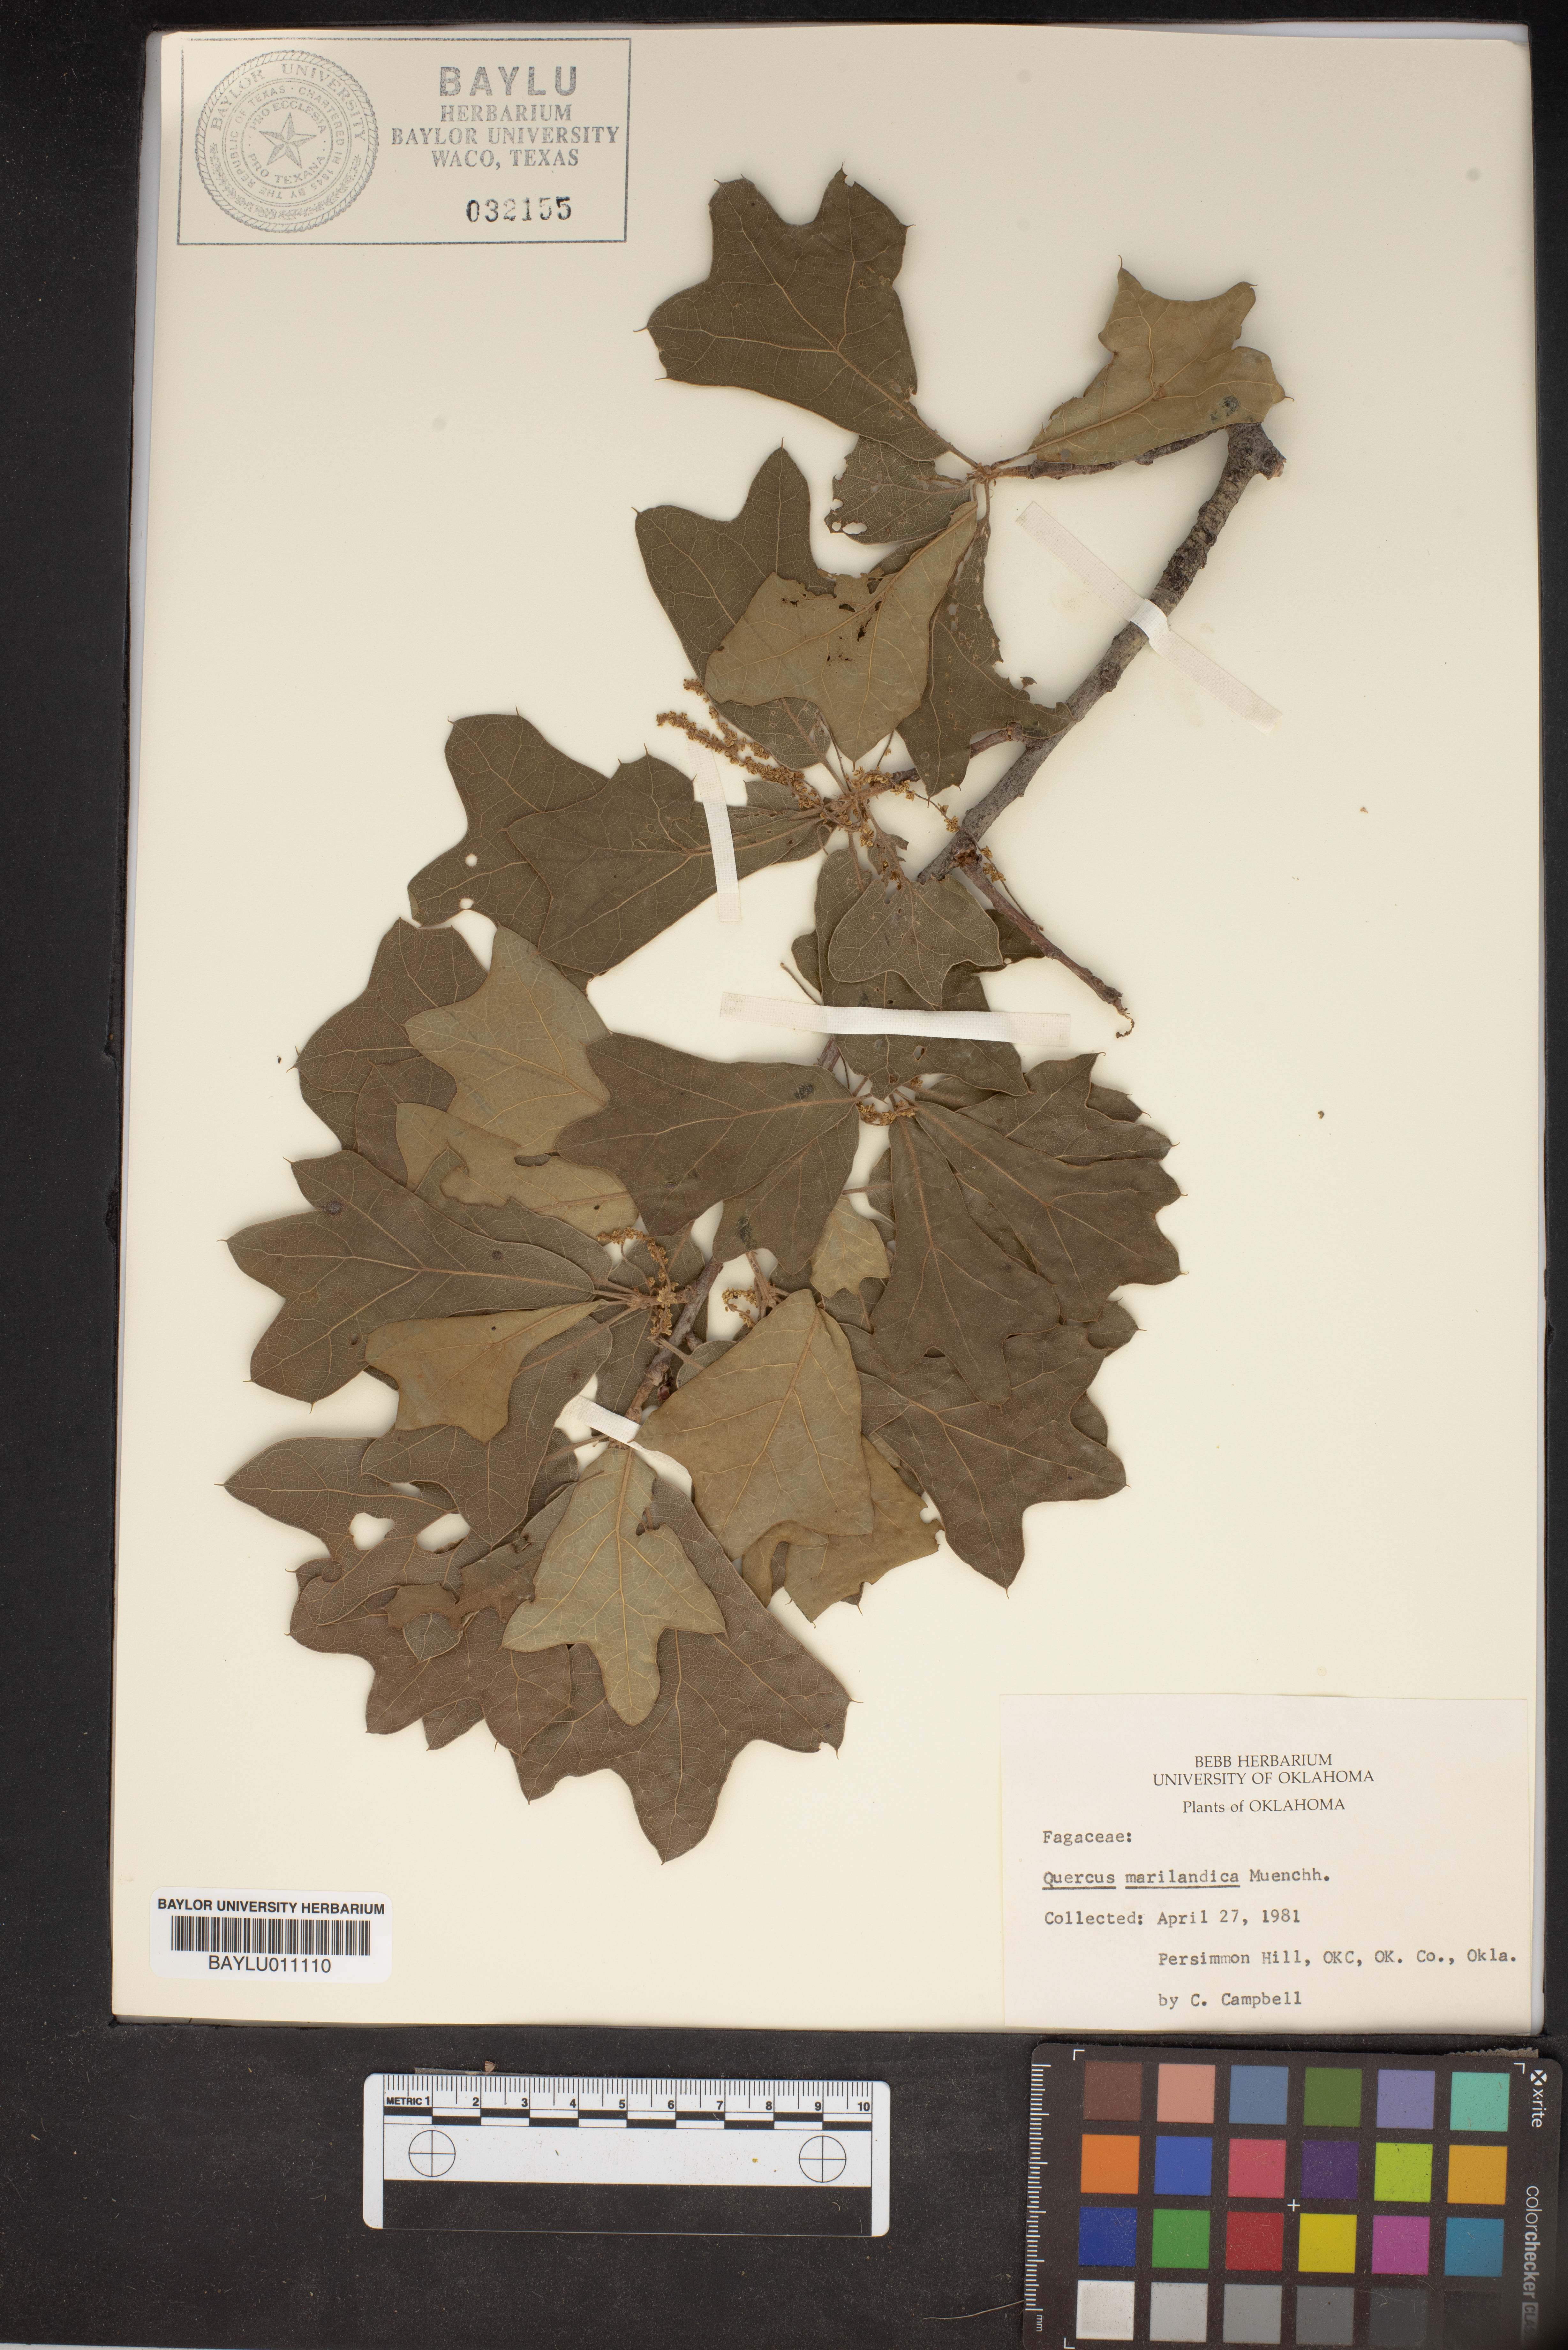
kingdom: Plantae
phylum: Tracheophyta
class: Magnoliopsida
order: Fagales
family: Fagaceae
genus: Quercus
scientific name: Quercus marilandica
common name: Blackjack oak
